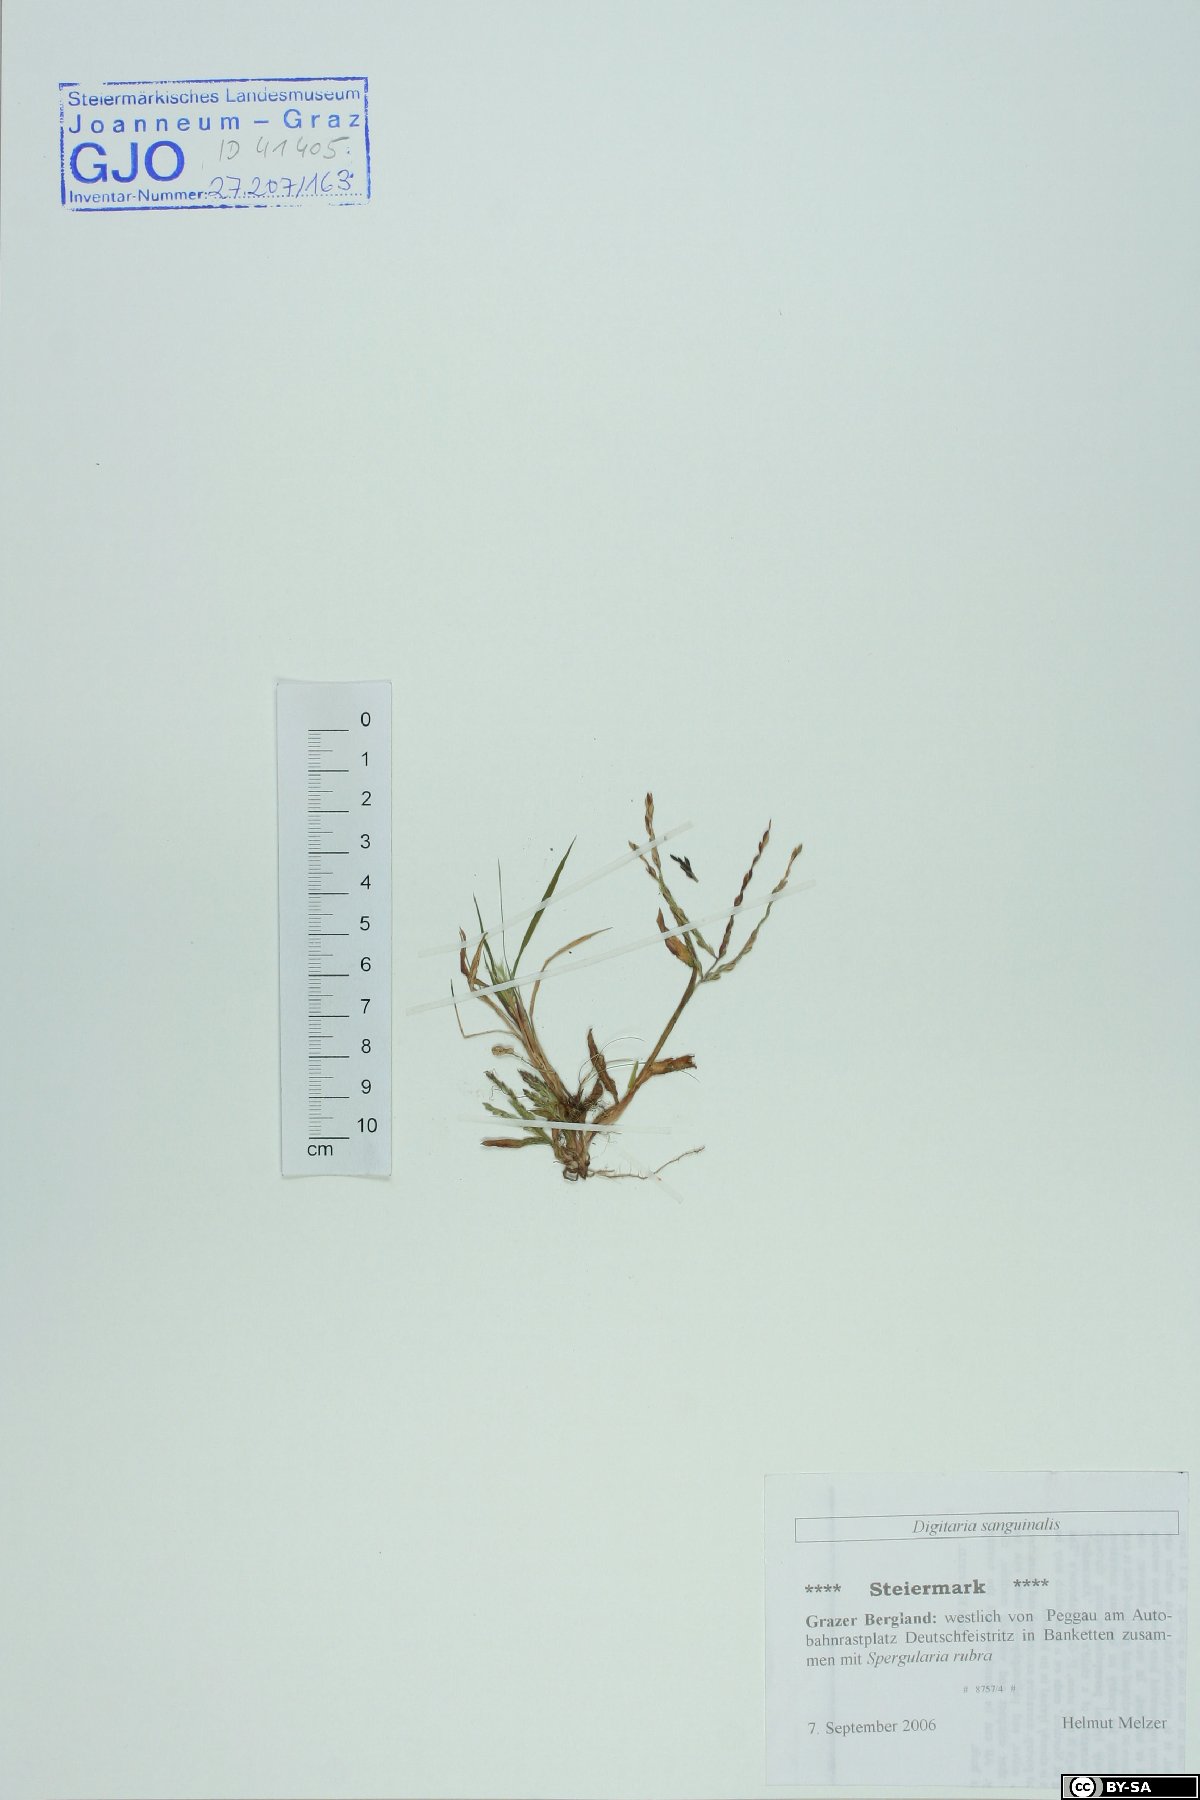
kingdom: Plantae
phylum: Tracheophyta
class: Liliopsida
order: Poales
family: Poaceae
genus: Digitaria
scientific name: Digitaria sanguinalis
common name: Hairy crabgrass
